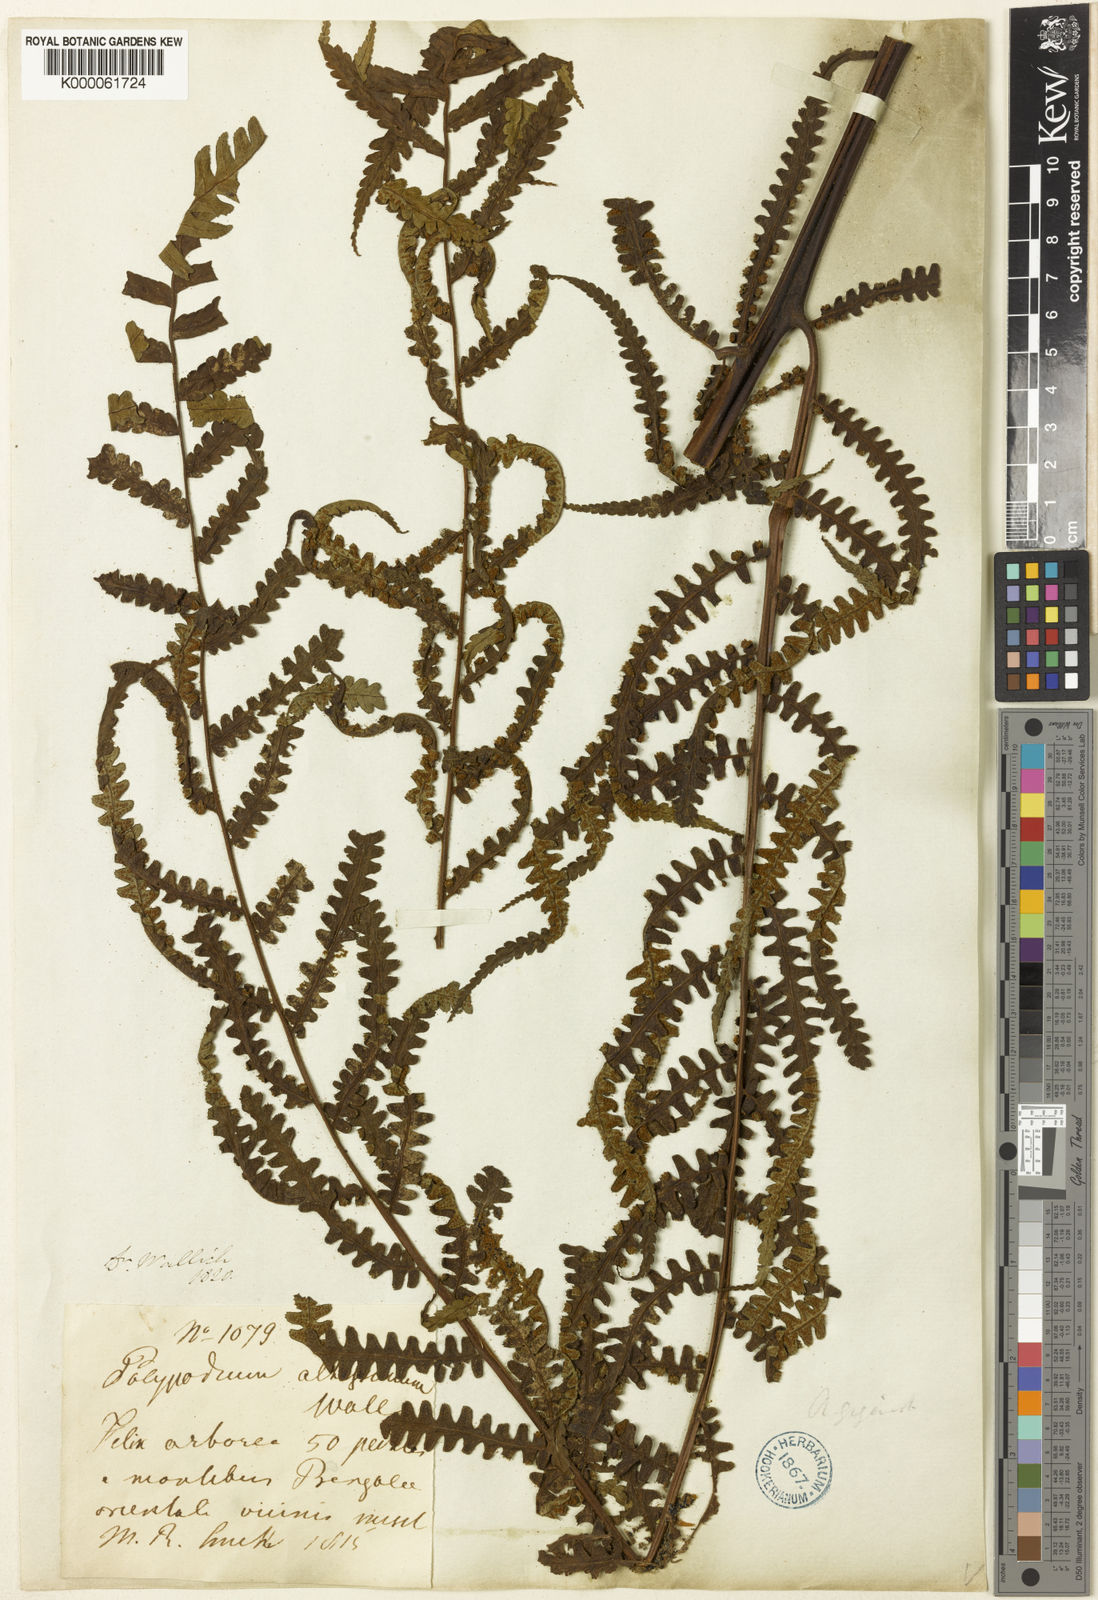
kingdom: Plantae
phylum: Tracheophyta
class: Polypodiopsida
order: Cyatheales
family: Cyatheaceae
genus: Gymnosphaera
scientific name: Gymnosphaera gigantea
